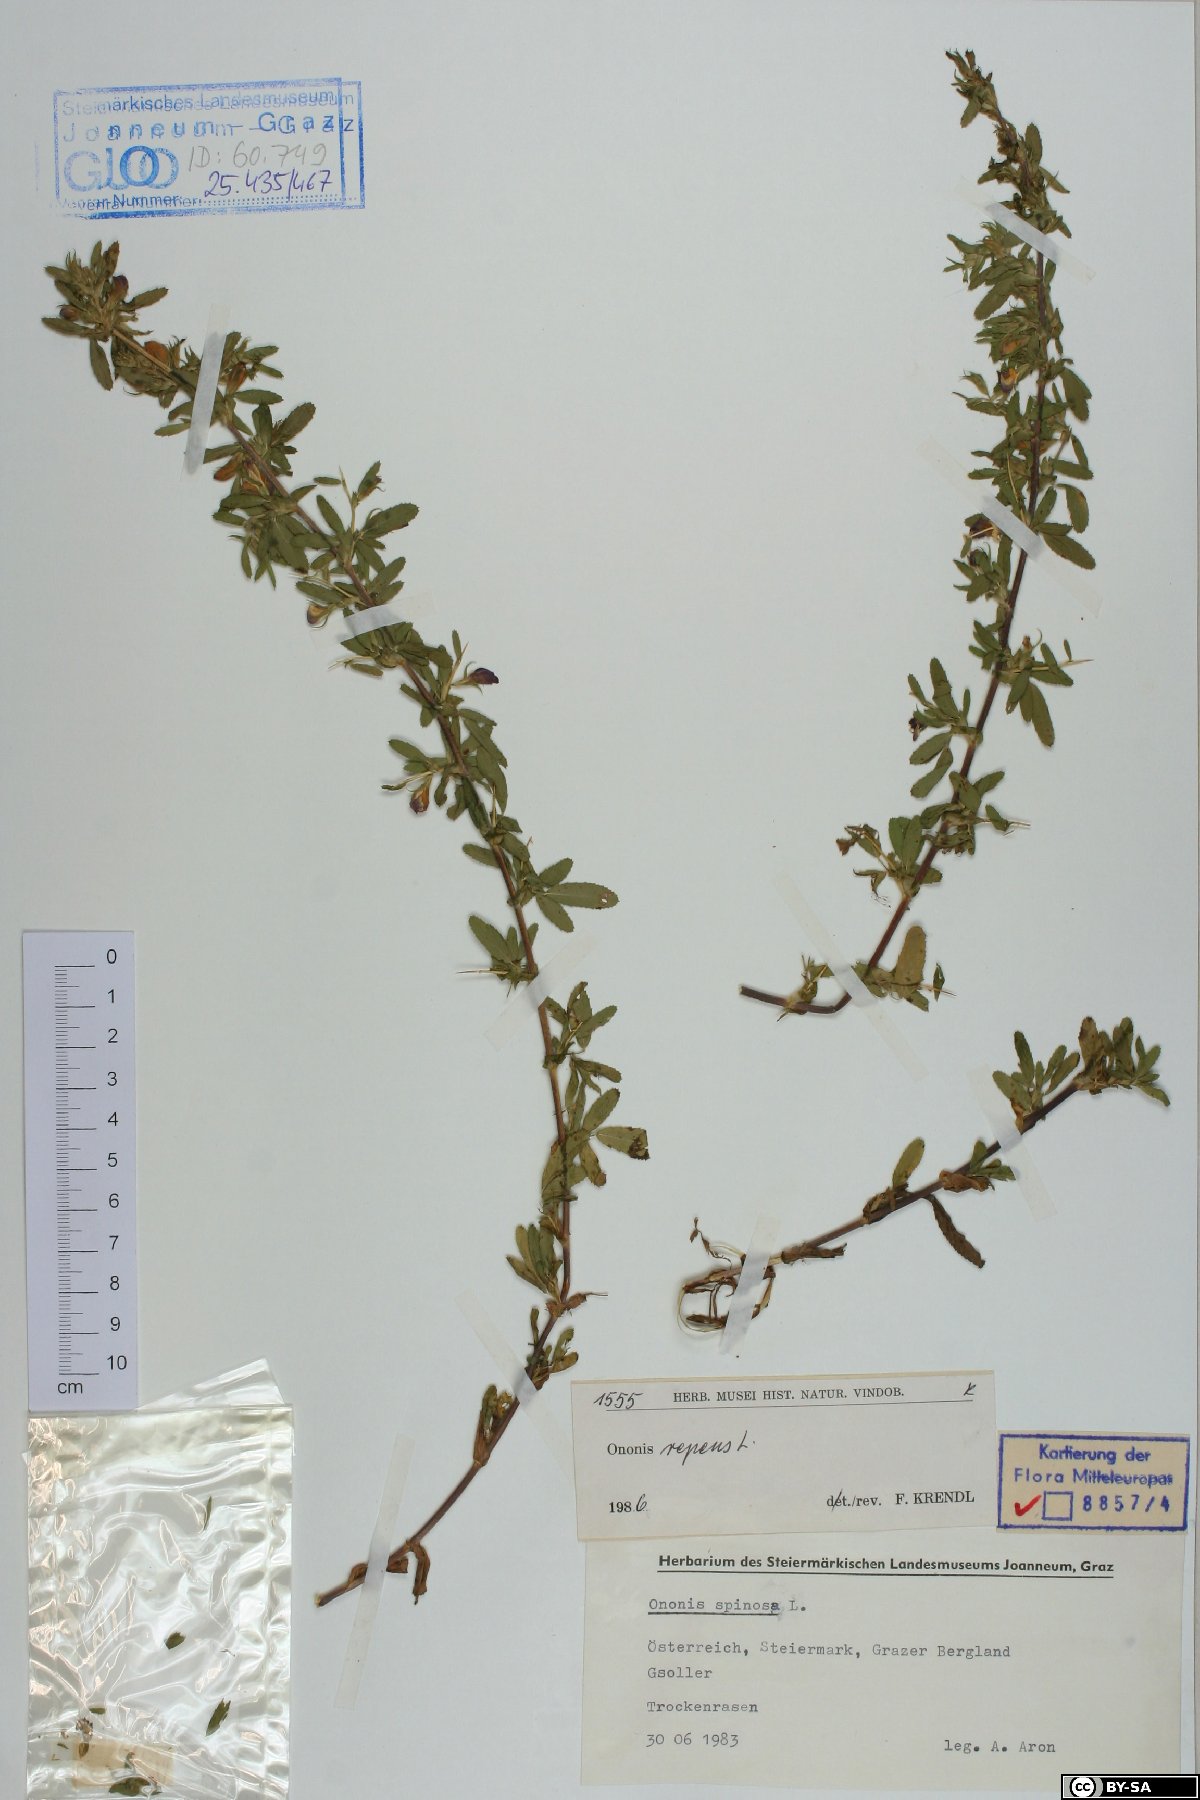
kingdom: Plantae
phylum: Tracheophyta
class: Magnoliopsida
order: Fabales
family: Fabaceae
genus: Ononis
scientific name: Ononis spinosa
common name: Spiny restharrow
